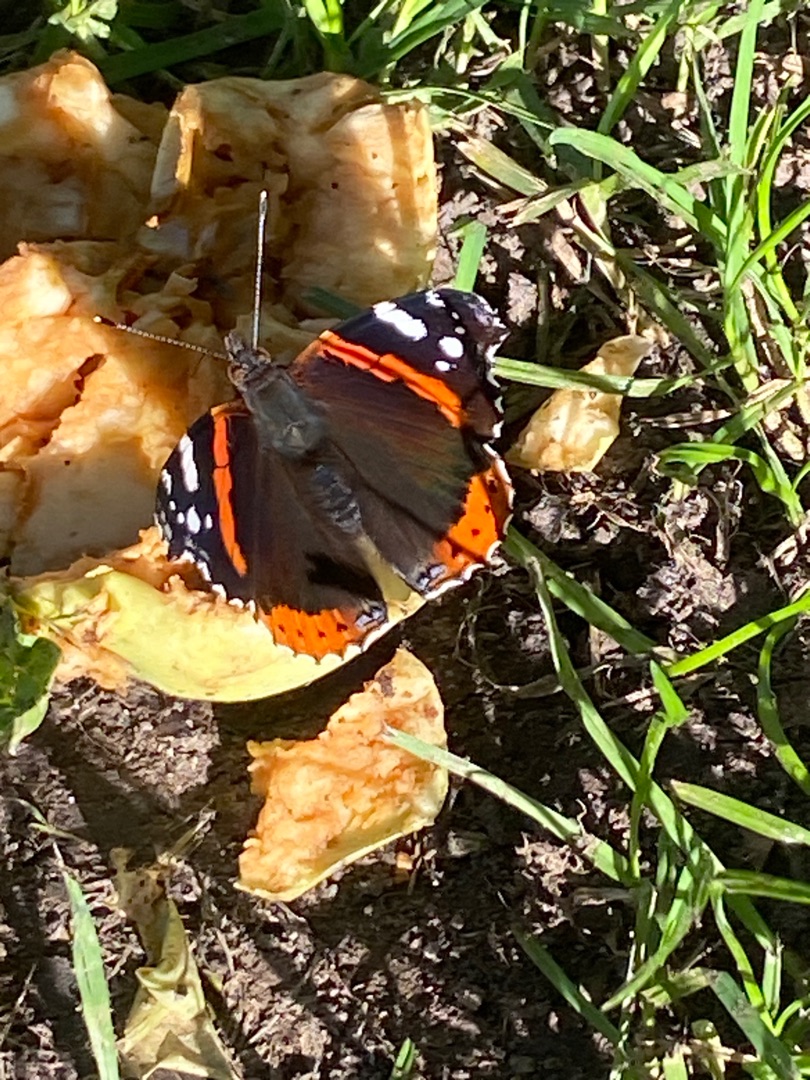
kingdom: Animalia
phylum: Arthropoda
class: Insecta
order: Lepidoptera
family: Nymphalidae
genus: Vanessa
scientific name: Vanessa atalanta
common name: Admiral
